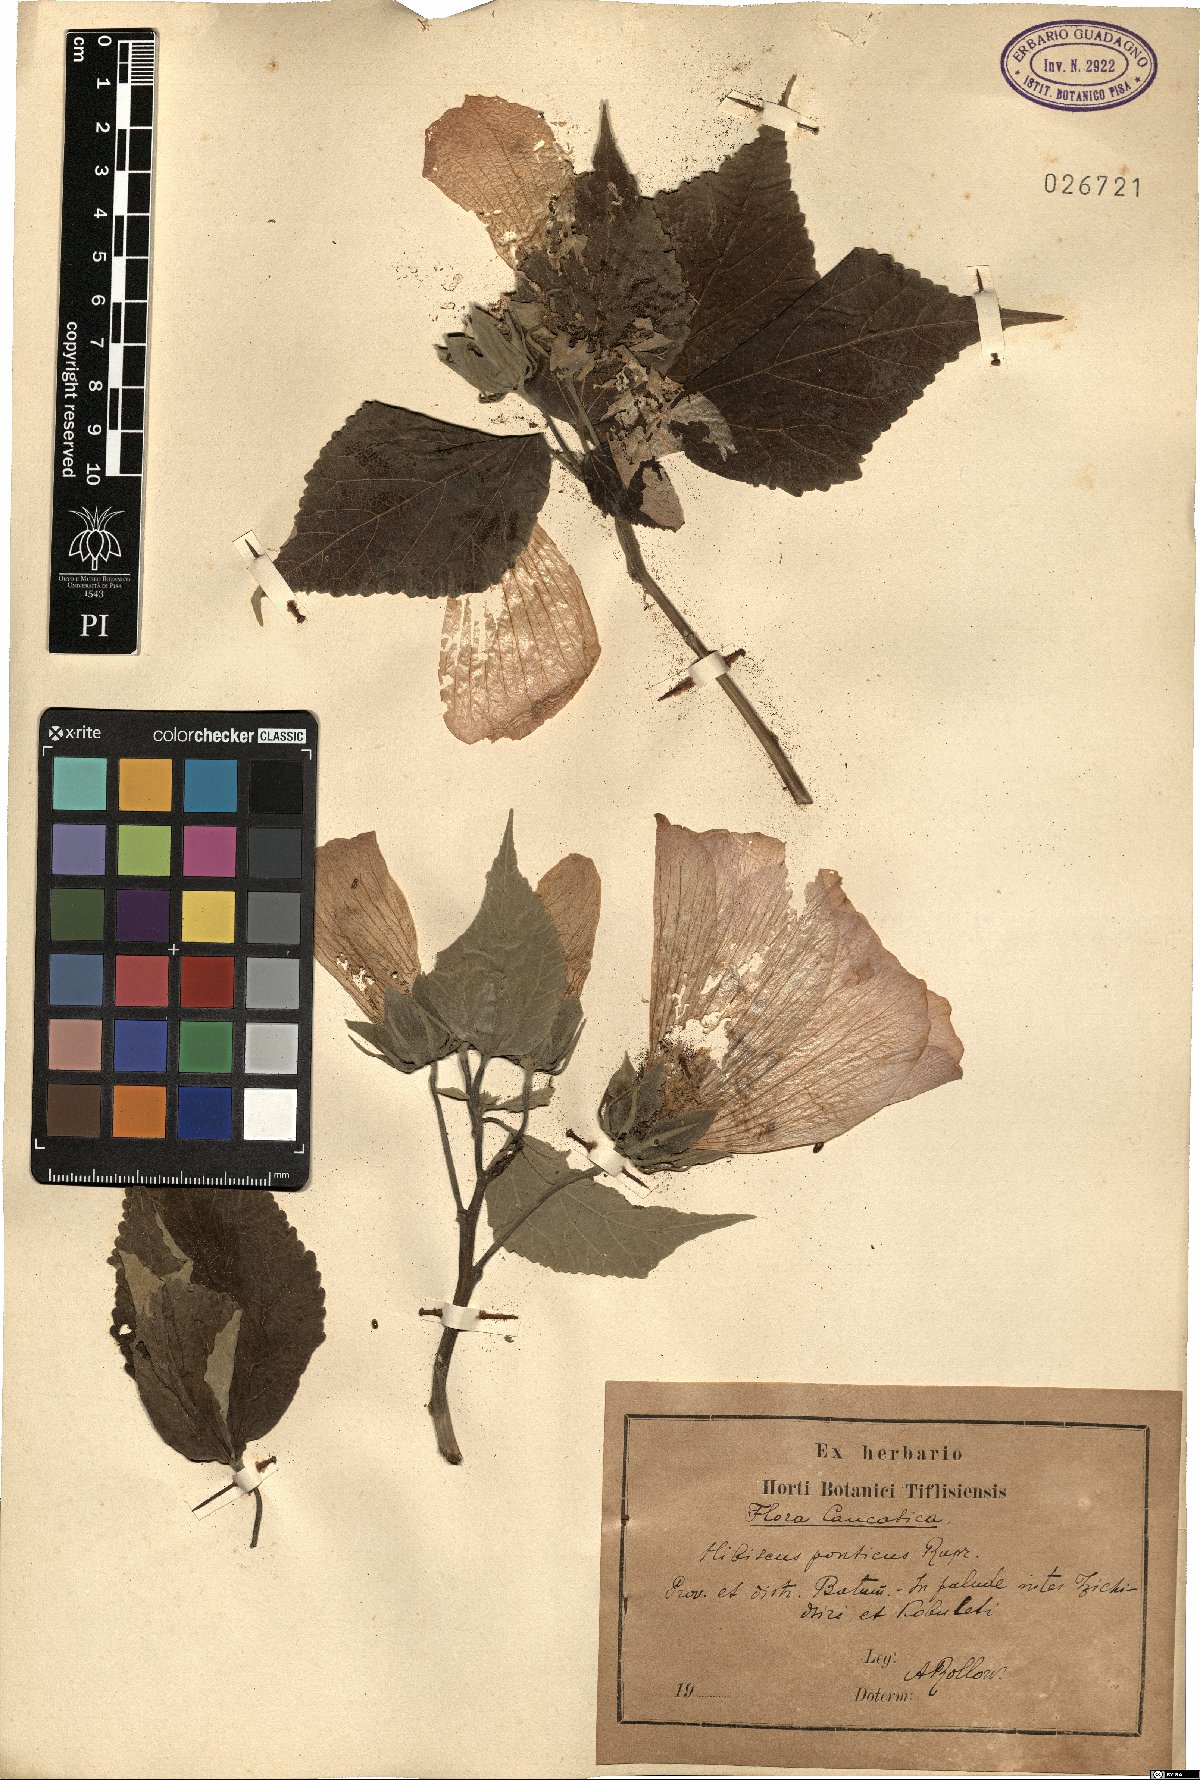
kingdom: Plantae
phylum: Tracheophyta
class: Magnoliopsida
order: Malvales
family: Malvaceae
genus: Hibiscus
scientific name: Hibiscus ponticus
